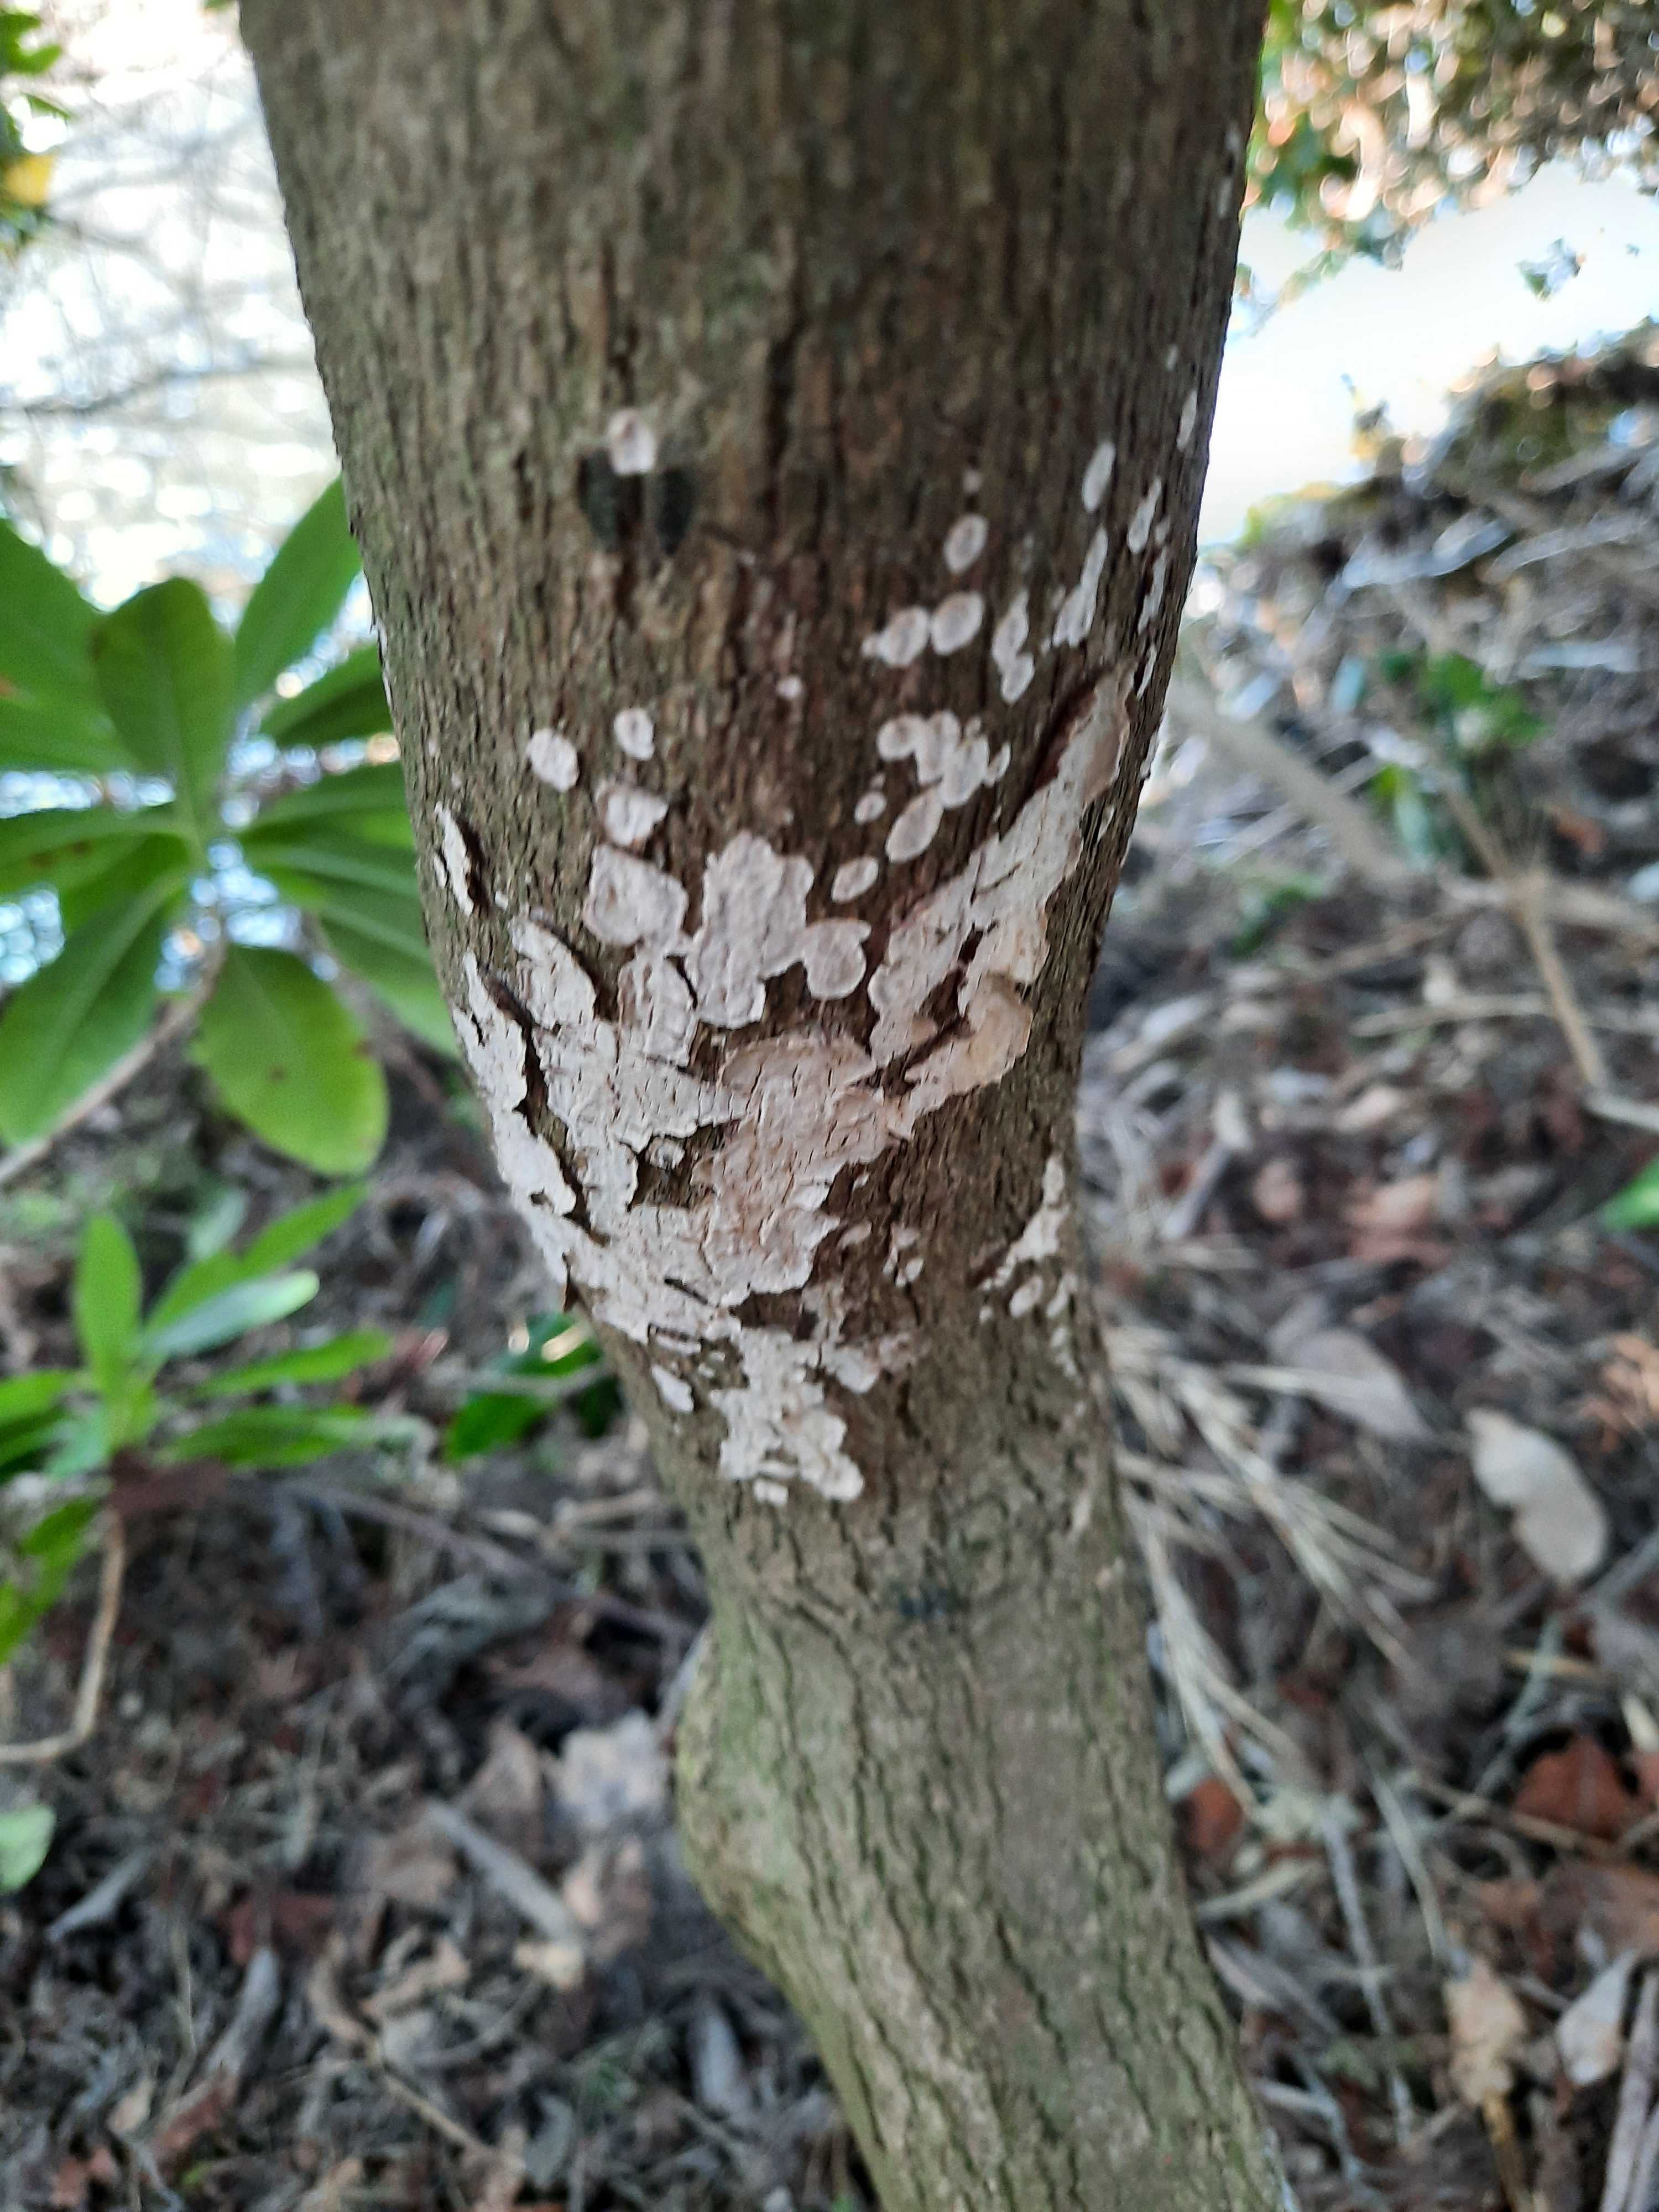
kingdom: Fungi
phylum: Basidiomycota
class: Agaricomycetes
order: Russulales
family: Stereaceae
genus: Stereum
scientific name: Stereum rugosum
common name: rynket lædersvamp
